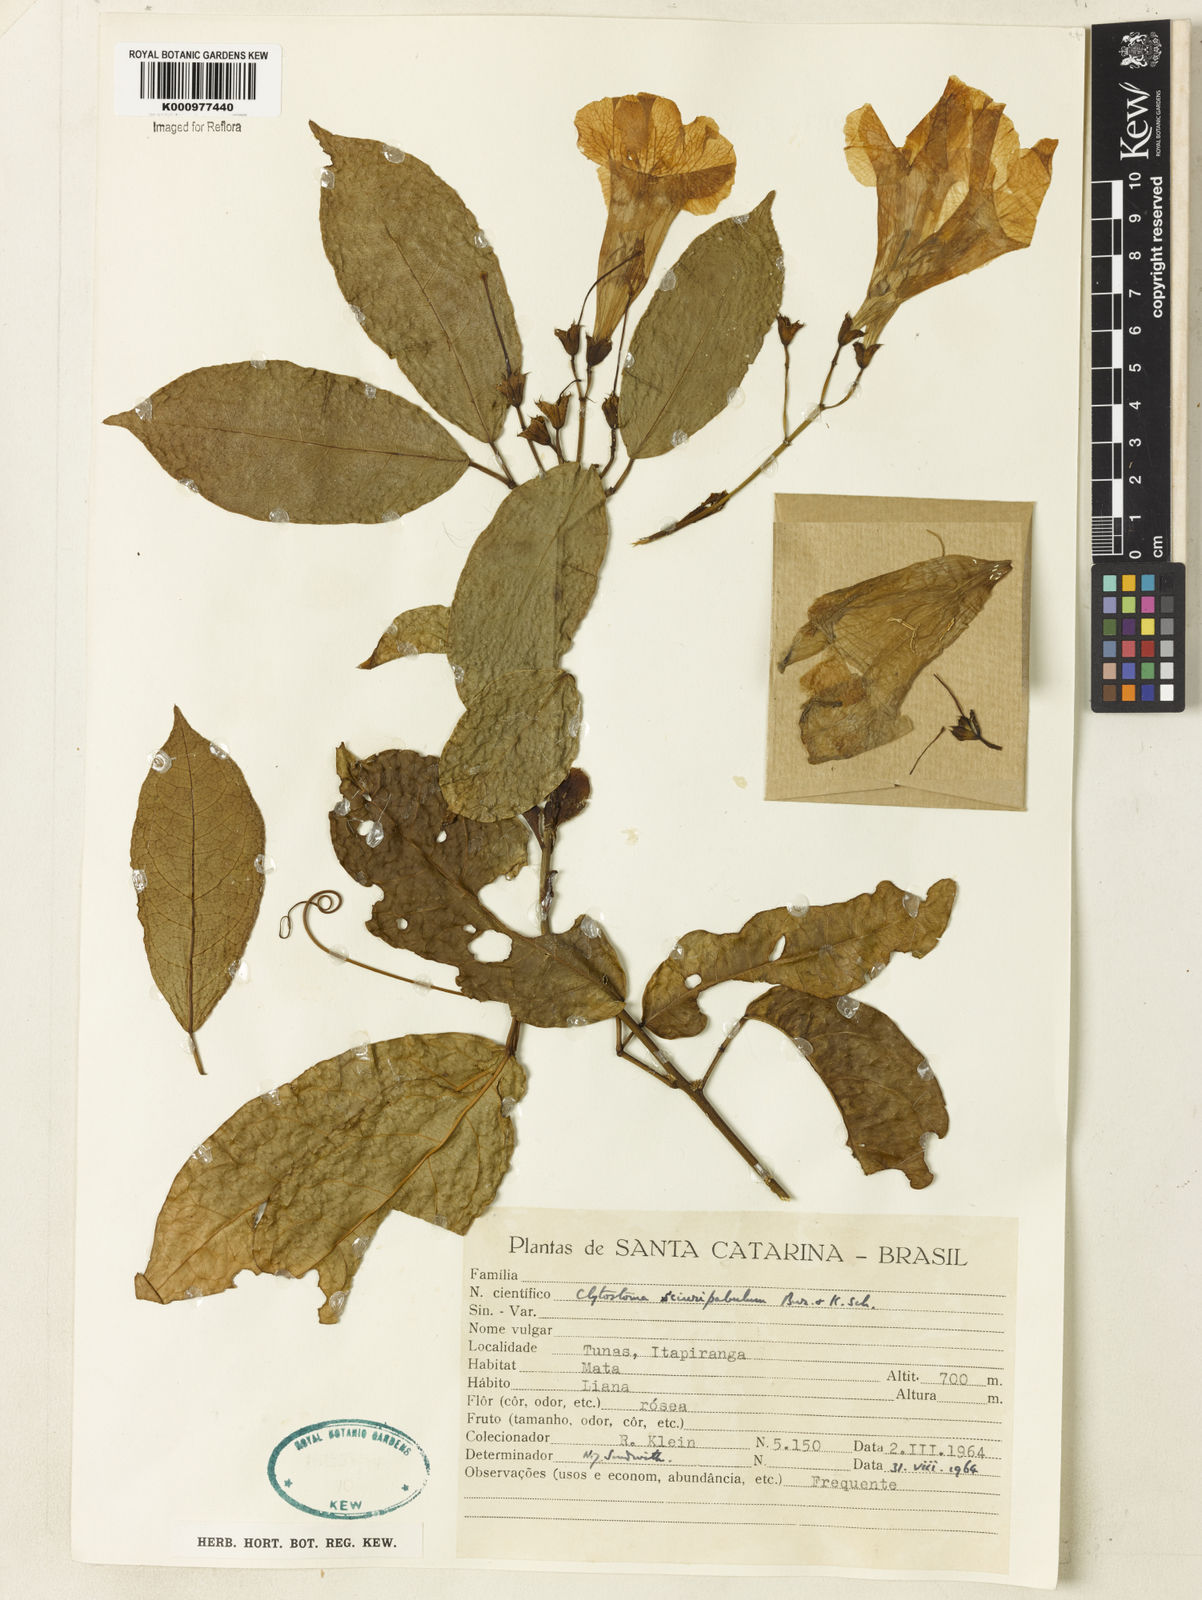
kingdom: Plantae
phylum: Tracheophyta
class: Magnoliopsida
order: Lamiales
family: Bignoniaceae
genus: Bignonia
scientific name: Bignonia
